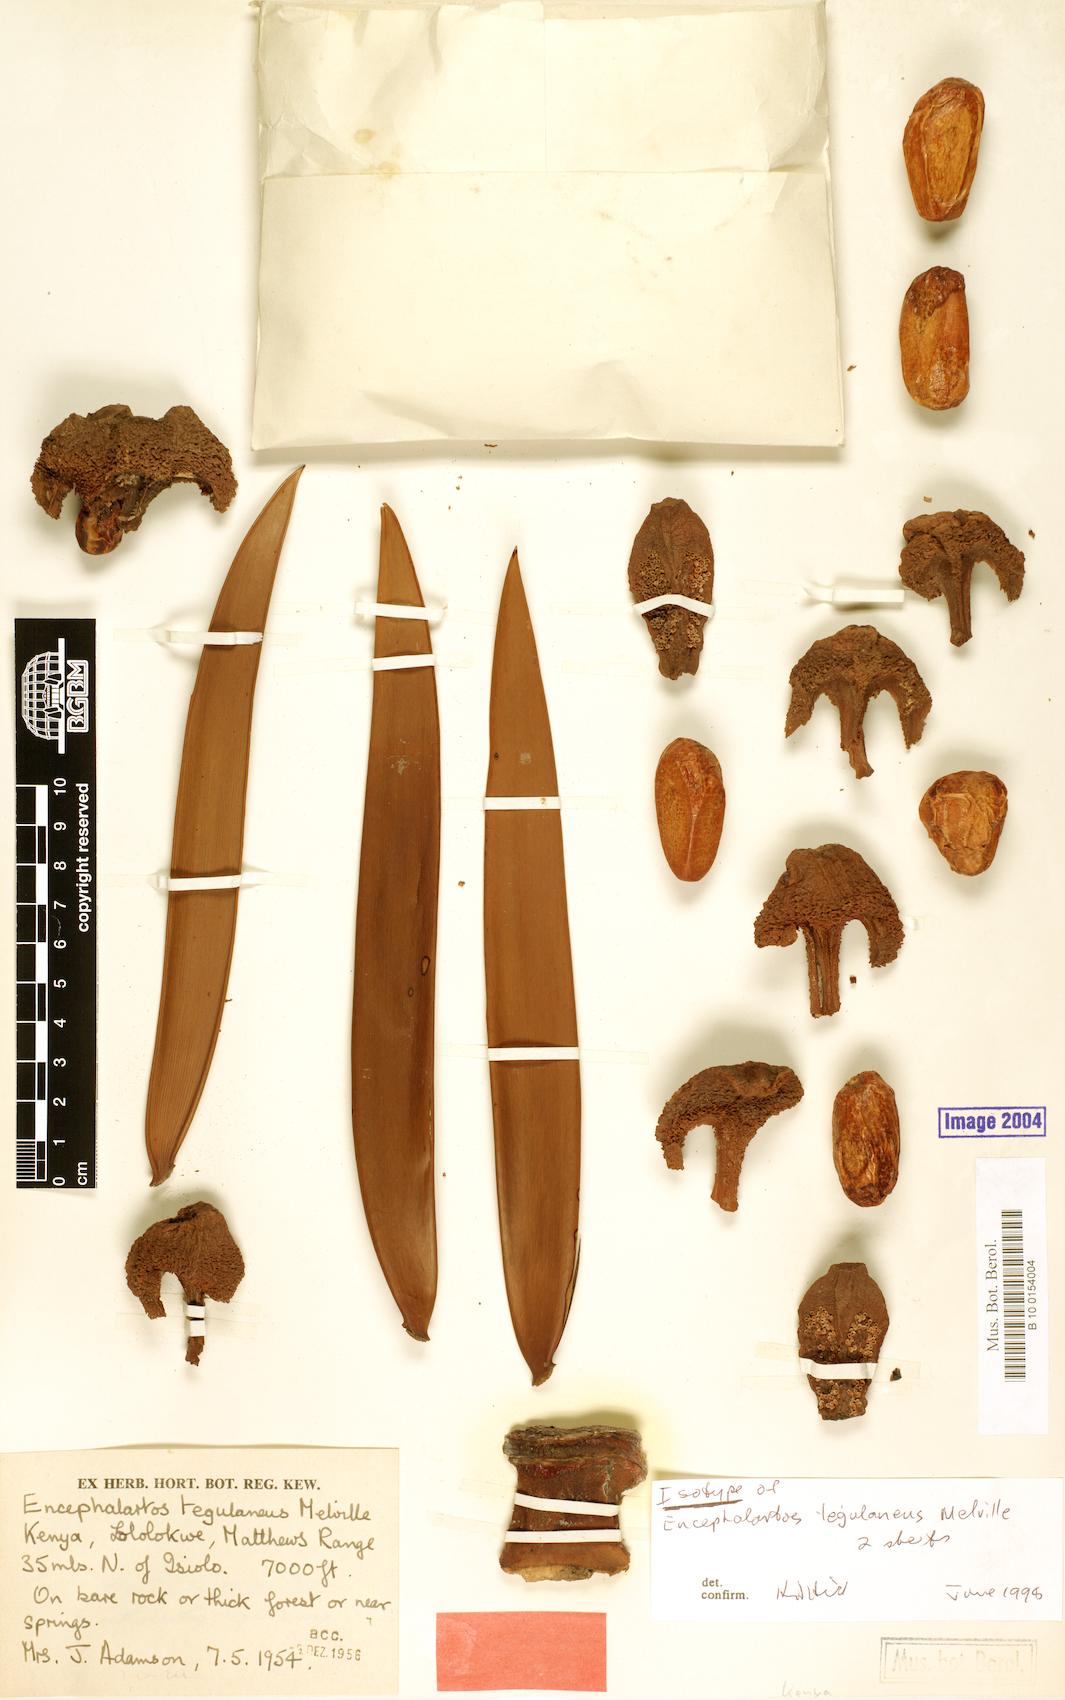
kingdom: Plantae
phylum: Tracheophyta
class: Cycadopsida
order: Cycadales
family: Zamiaceae
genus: Encephalartos
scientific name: Encephalartos tegulaneus
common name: Kenyan giant cycad
